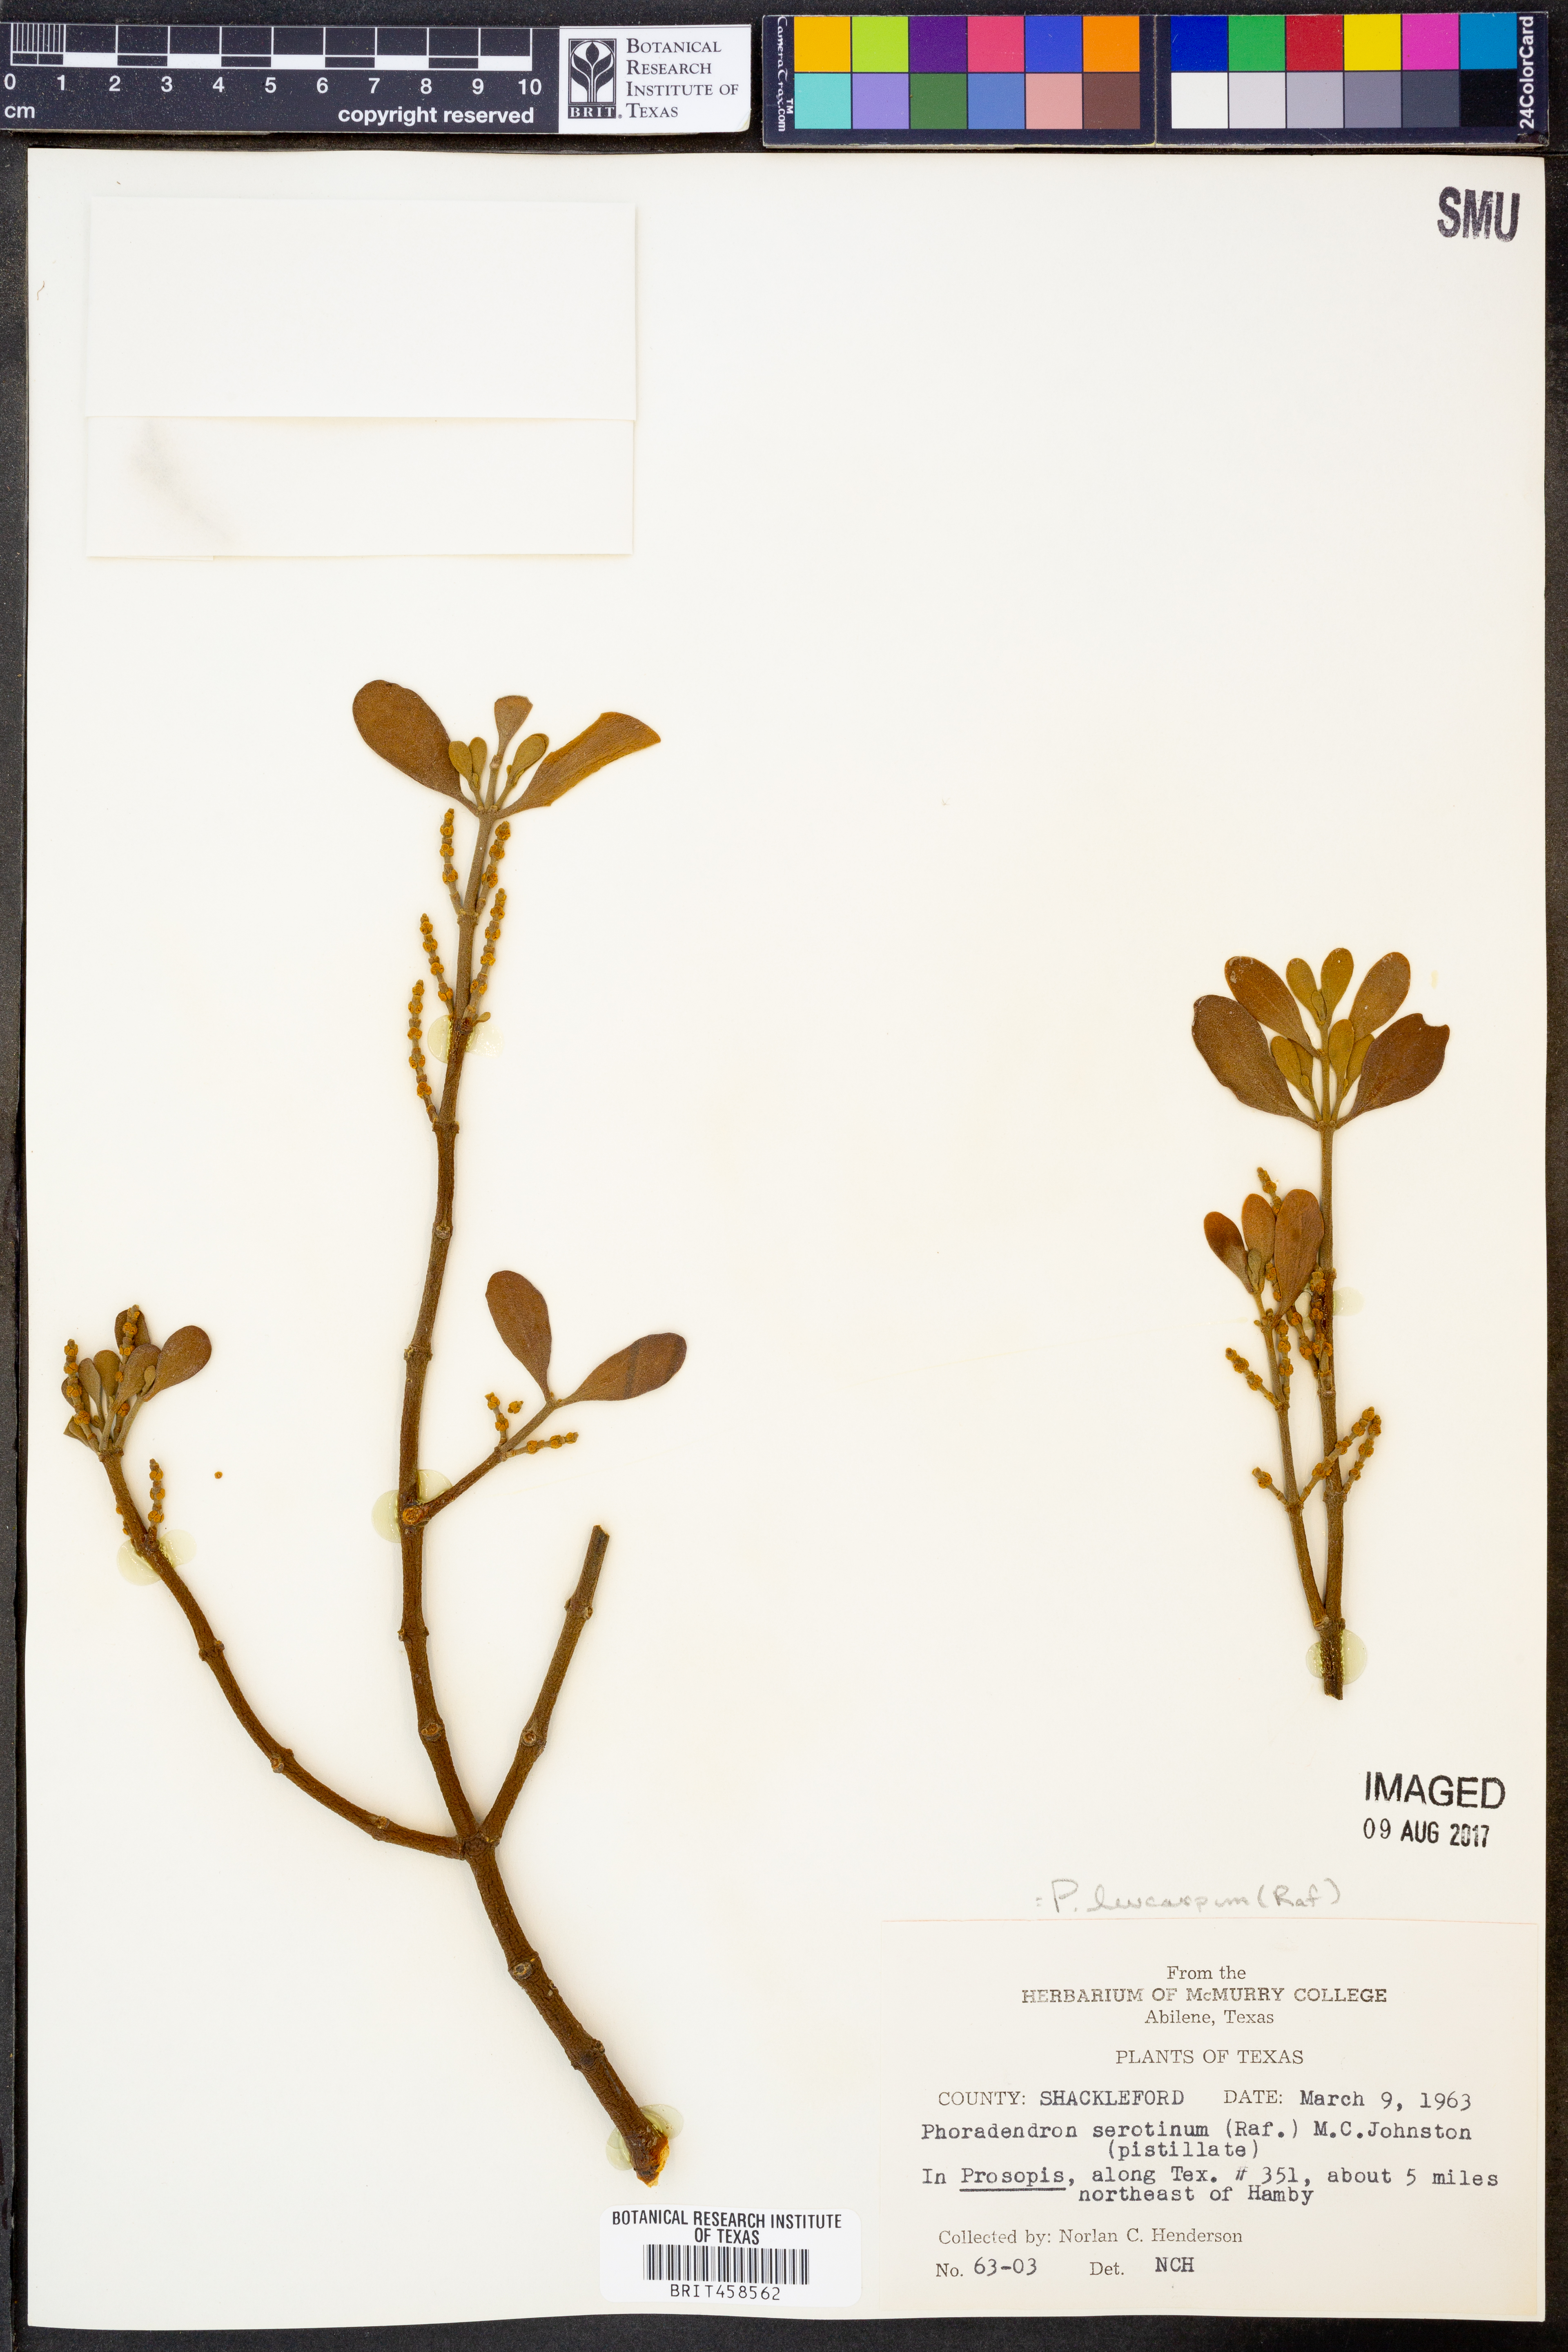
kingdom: Plantae
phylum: Tracheophyta
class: Magnoliopsida
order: Santalales
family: Viscaceae
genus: Phoradendron
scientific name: Phoradendron leucarpum
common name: Pacific mistletoe
